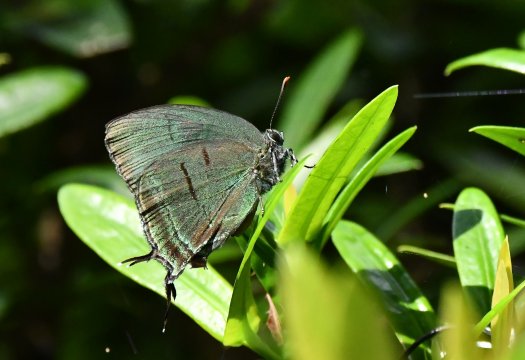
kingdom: Animalia
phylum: Arthropoda
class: Insecta
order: Lepidoptera
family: Lycaenidae
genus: Theritas
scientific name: Theritas mavors
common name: Deep-green Hairstreak
